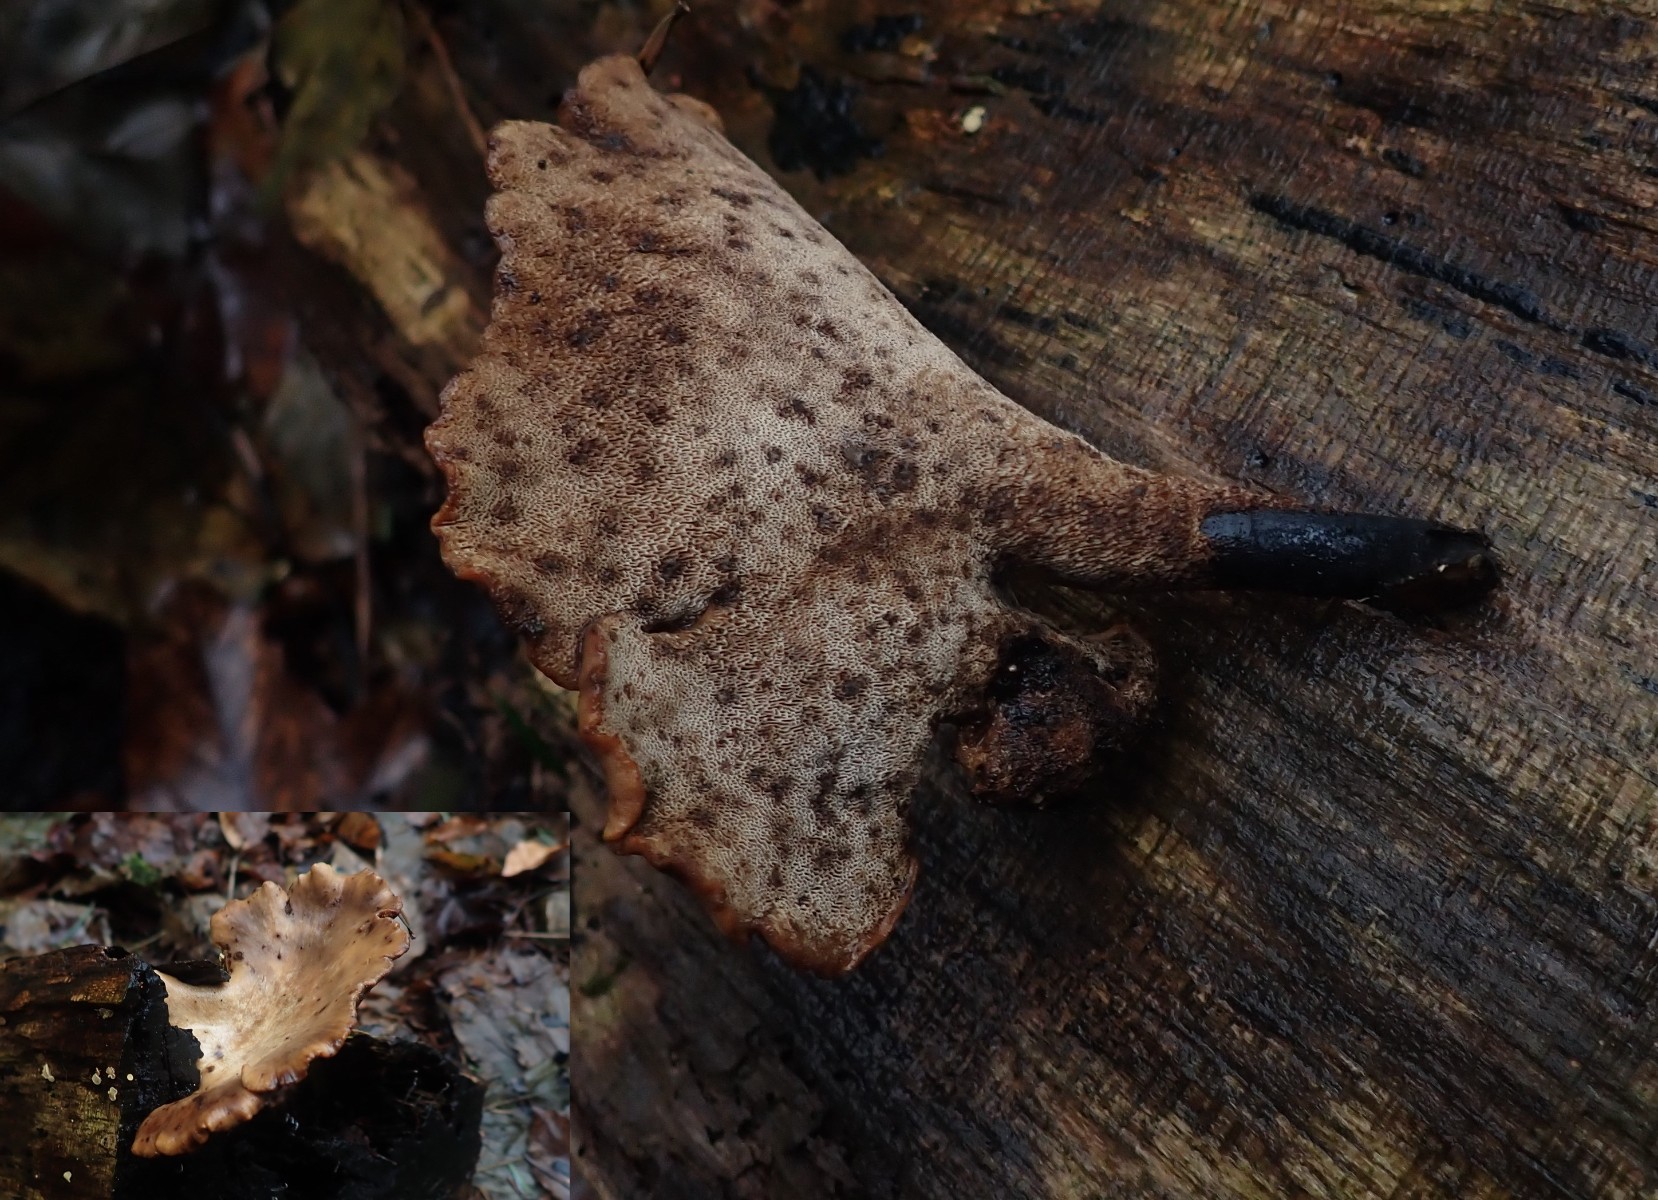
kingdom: Fungi
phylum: Basidiomycota
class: Agaricomycetes
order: Polyporales
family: Polyporaceae
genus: Cerioporus
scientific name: Cerioporus varius
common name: foranderlig stilkporesvamp
